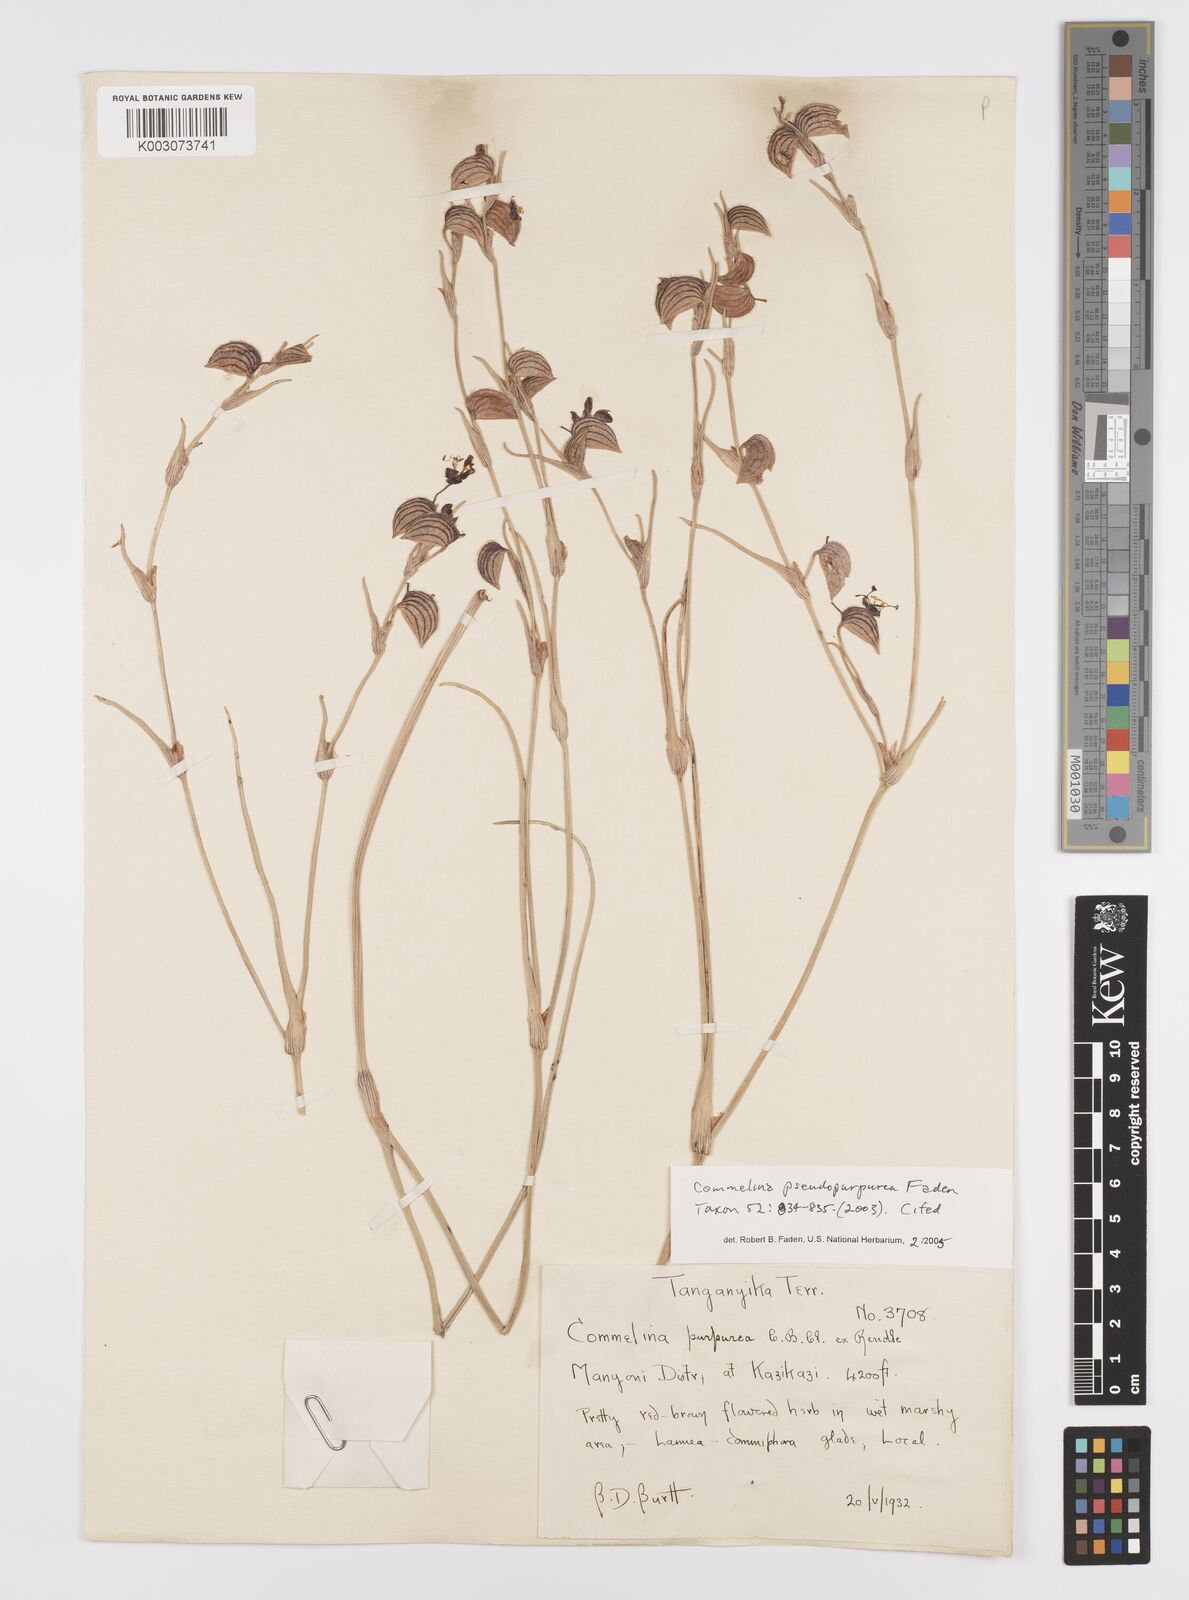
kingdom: Plantae
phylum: Tracheophyta
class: Liliopsida
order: Commelinales
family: Commelinaceae
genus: Commelina
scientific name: Commelina pseudopurpurea
